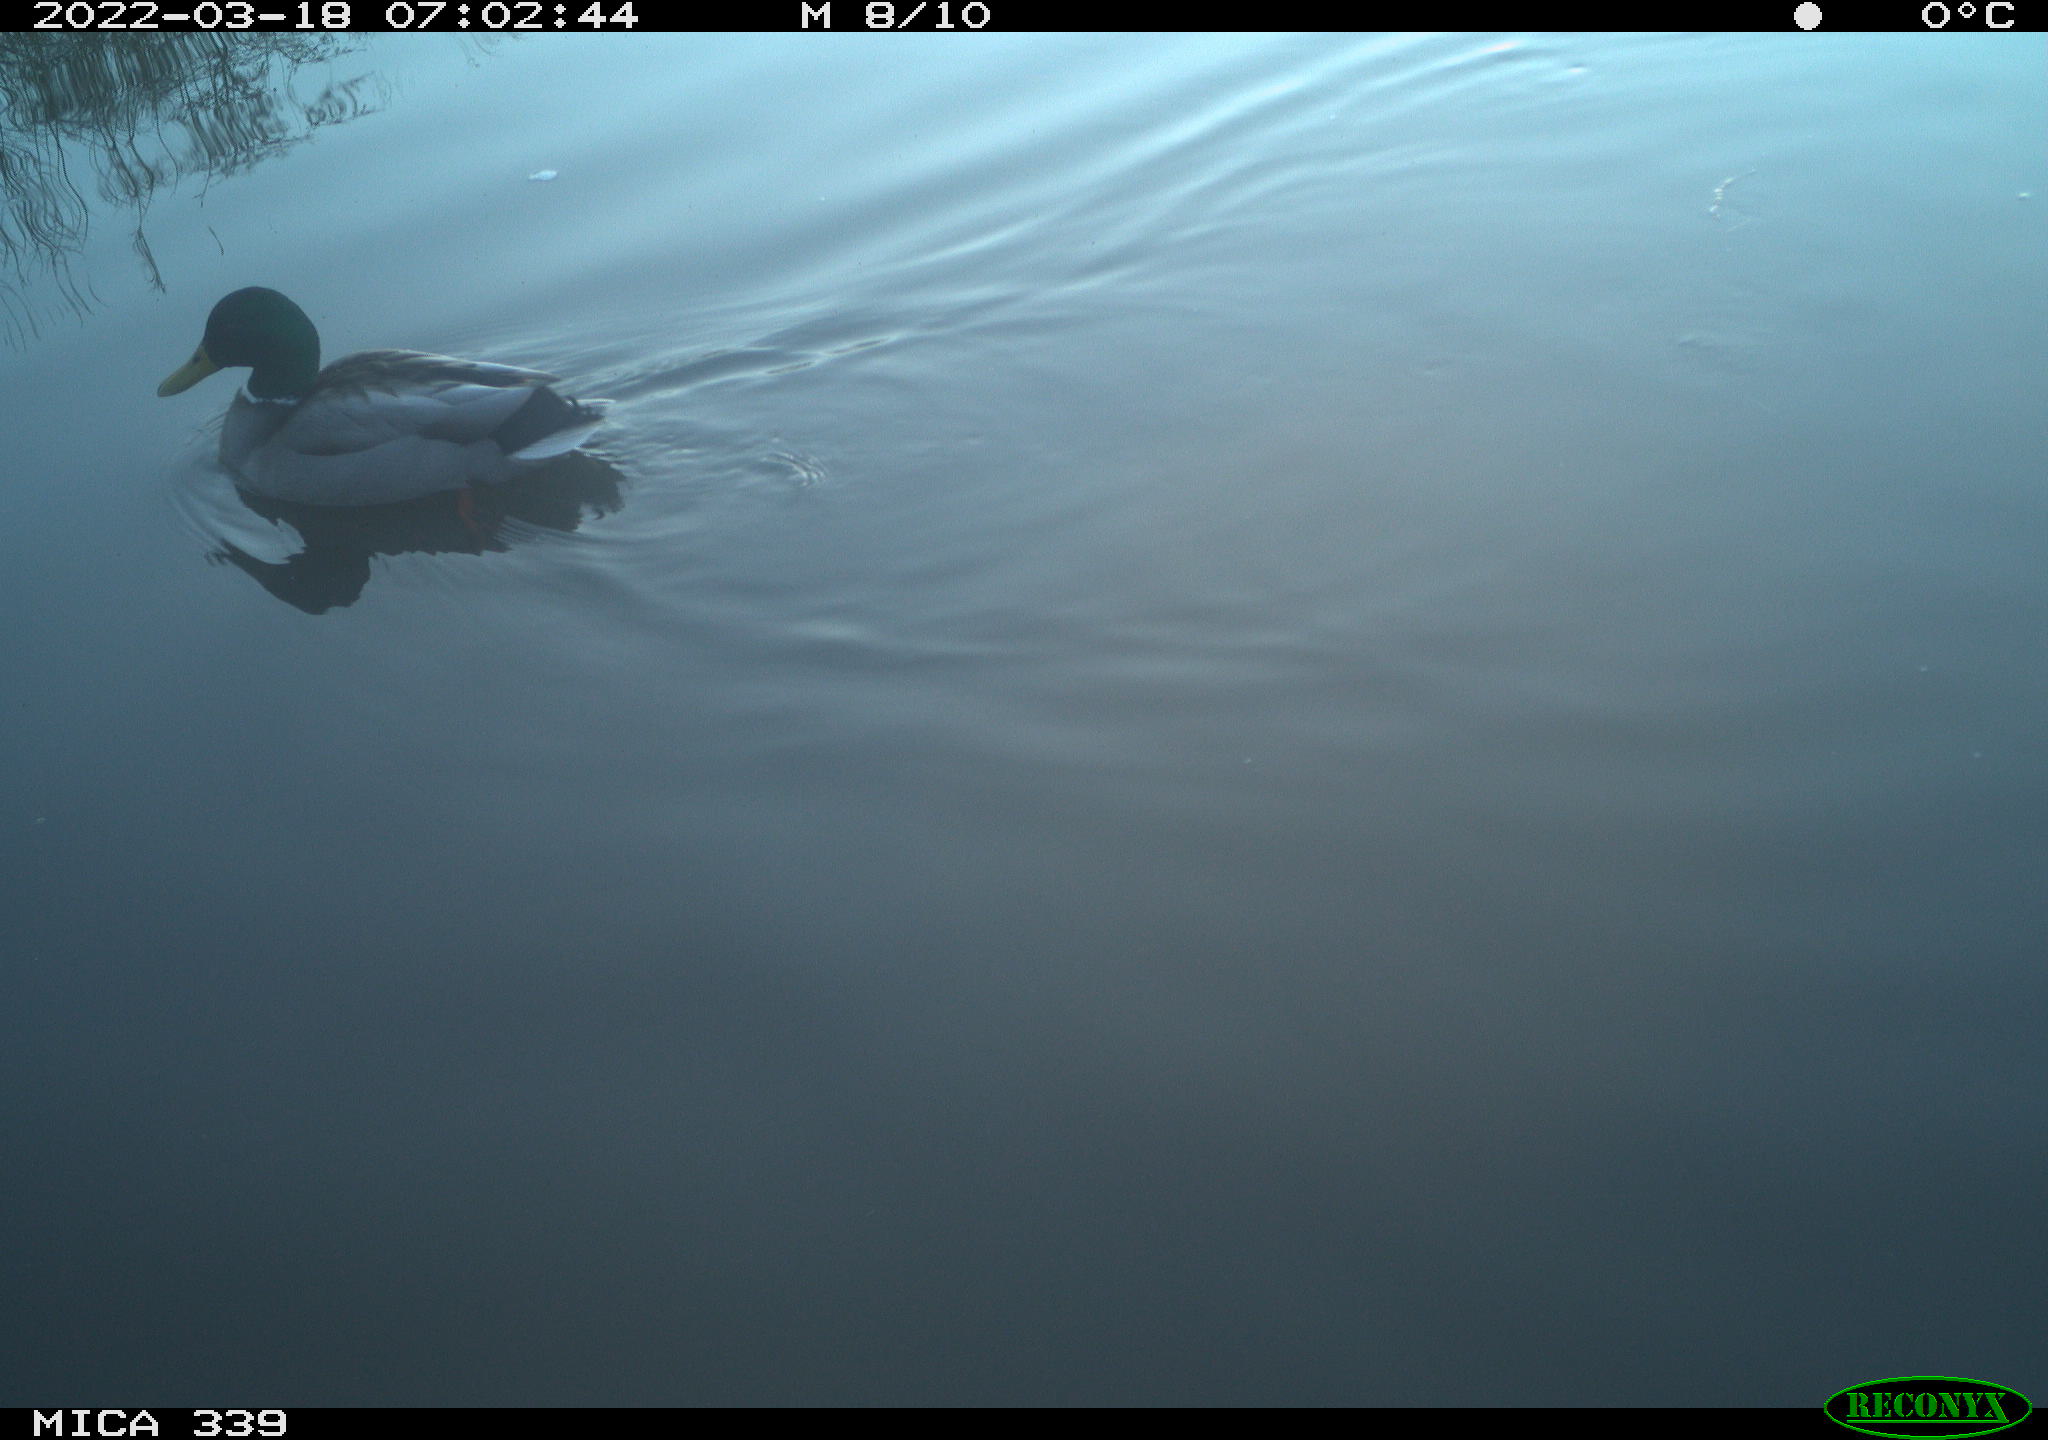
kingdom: Animalia
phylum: Chordata
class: Aves
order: Anseriformes
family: Anatidae
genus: Anas
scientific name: Anas platyrhynchos
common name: Mallard
